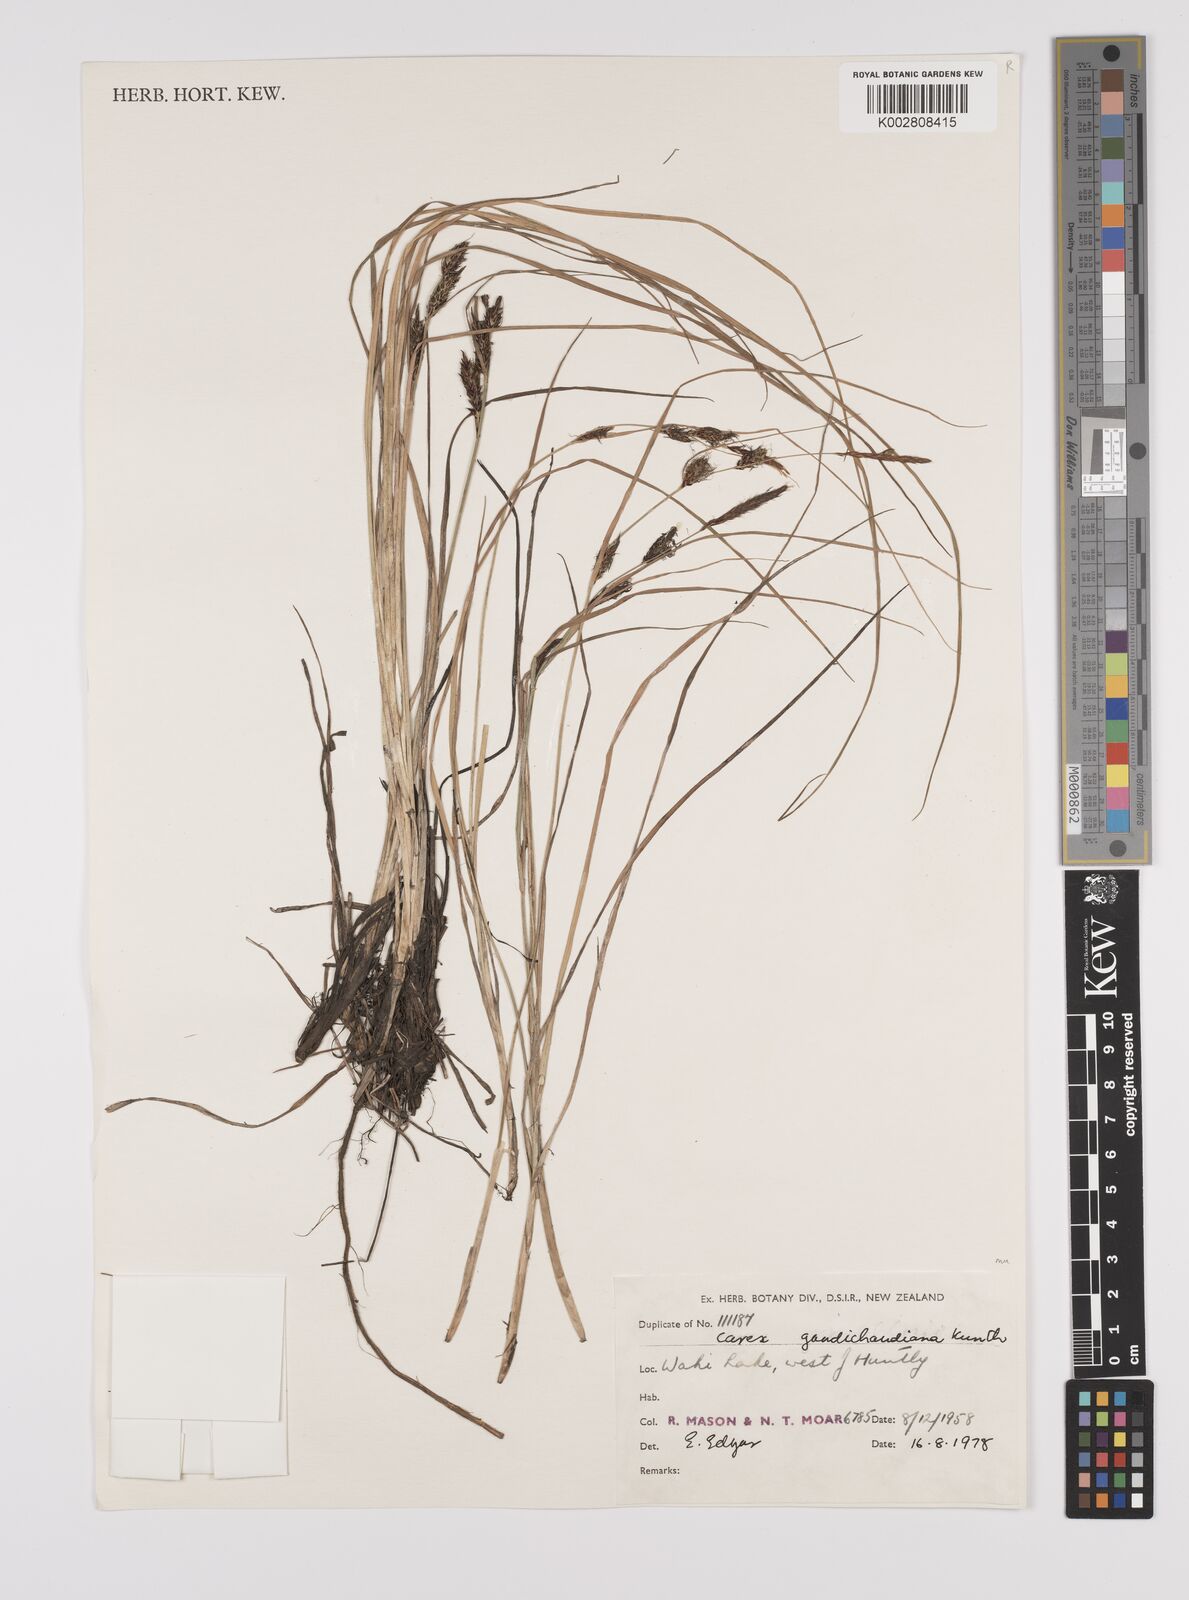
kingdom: Plantae
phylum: Tracheophyta
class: Liliopsida
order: Poales
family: Cyperaceae
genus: Carex
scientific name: Carex gaudichaudiana
